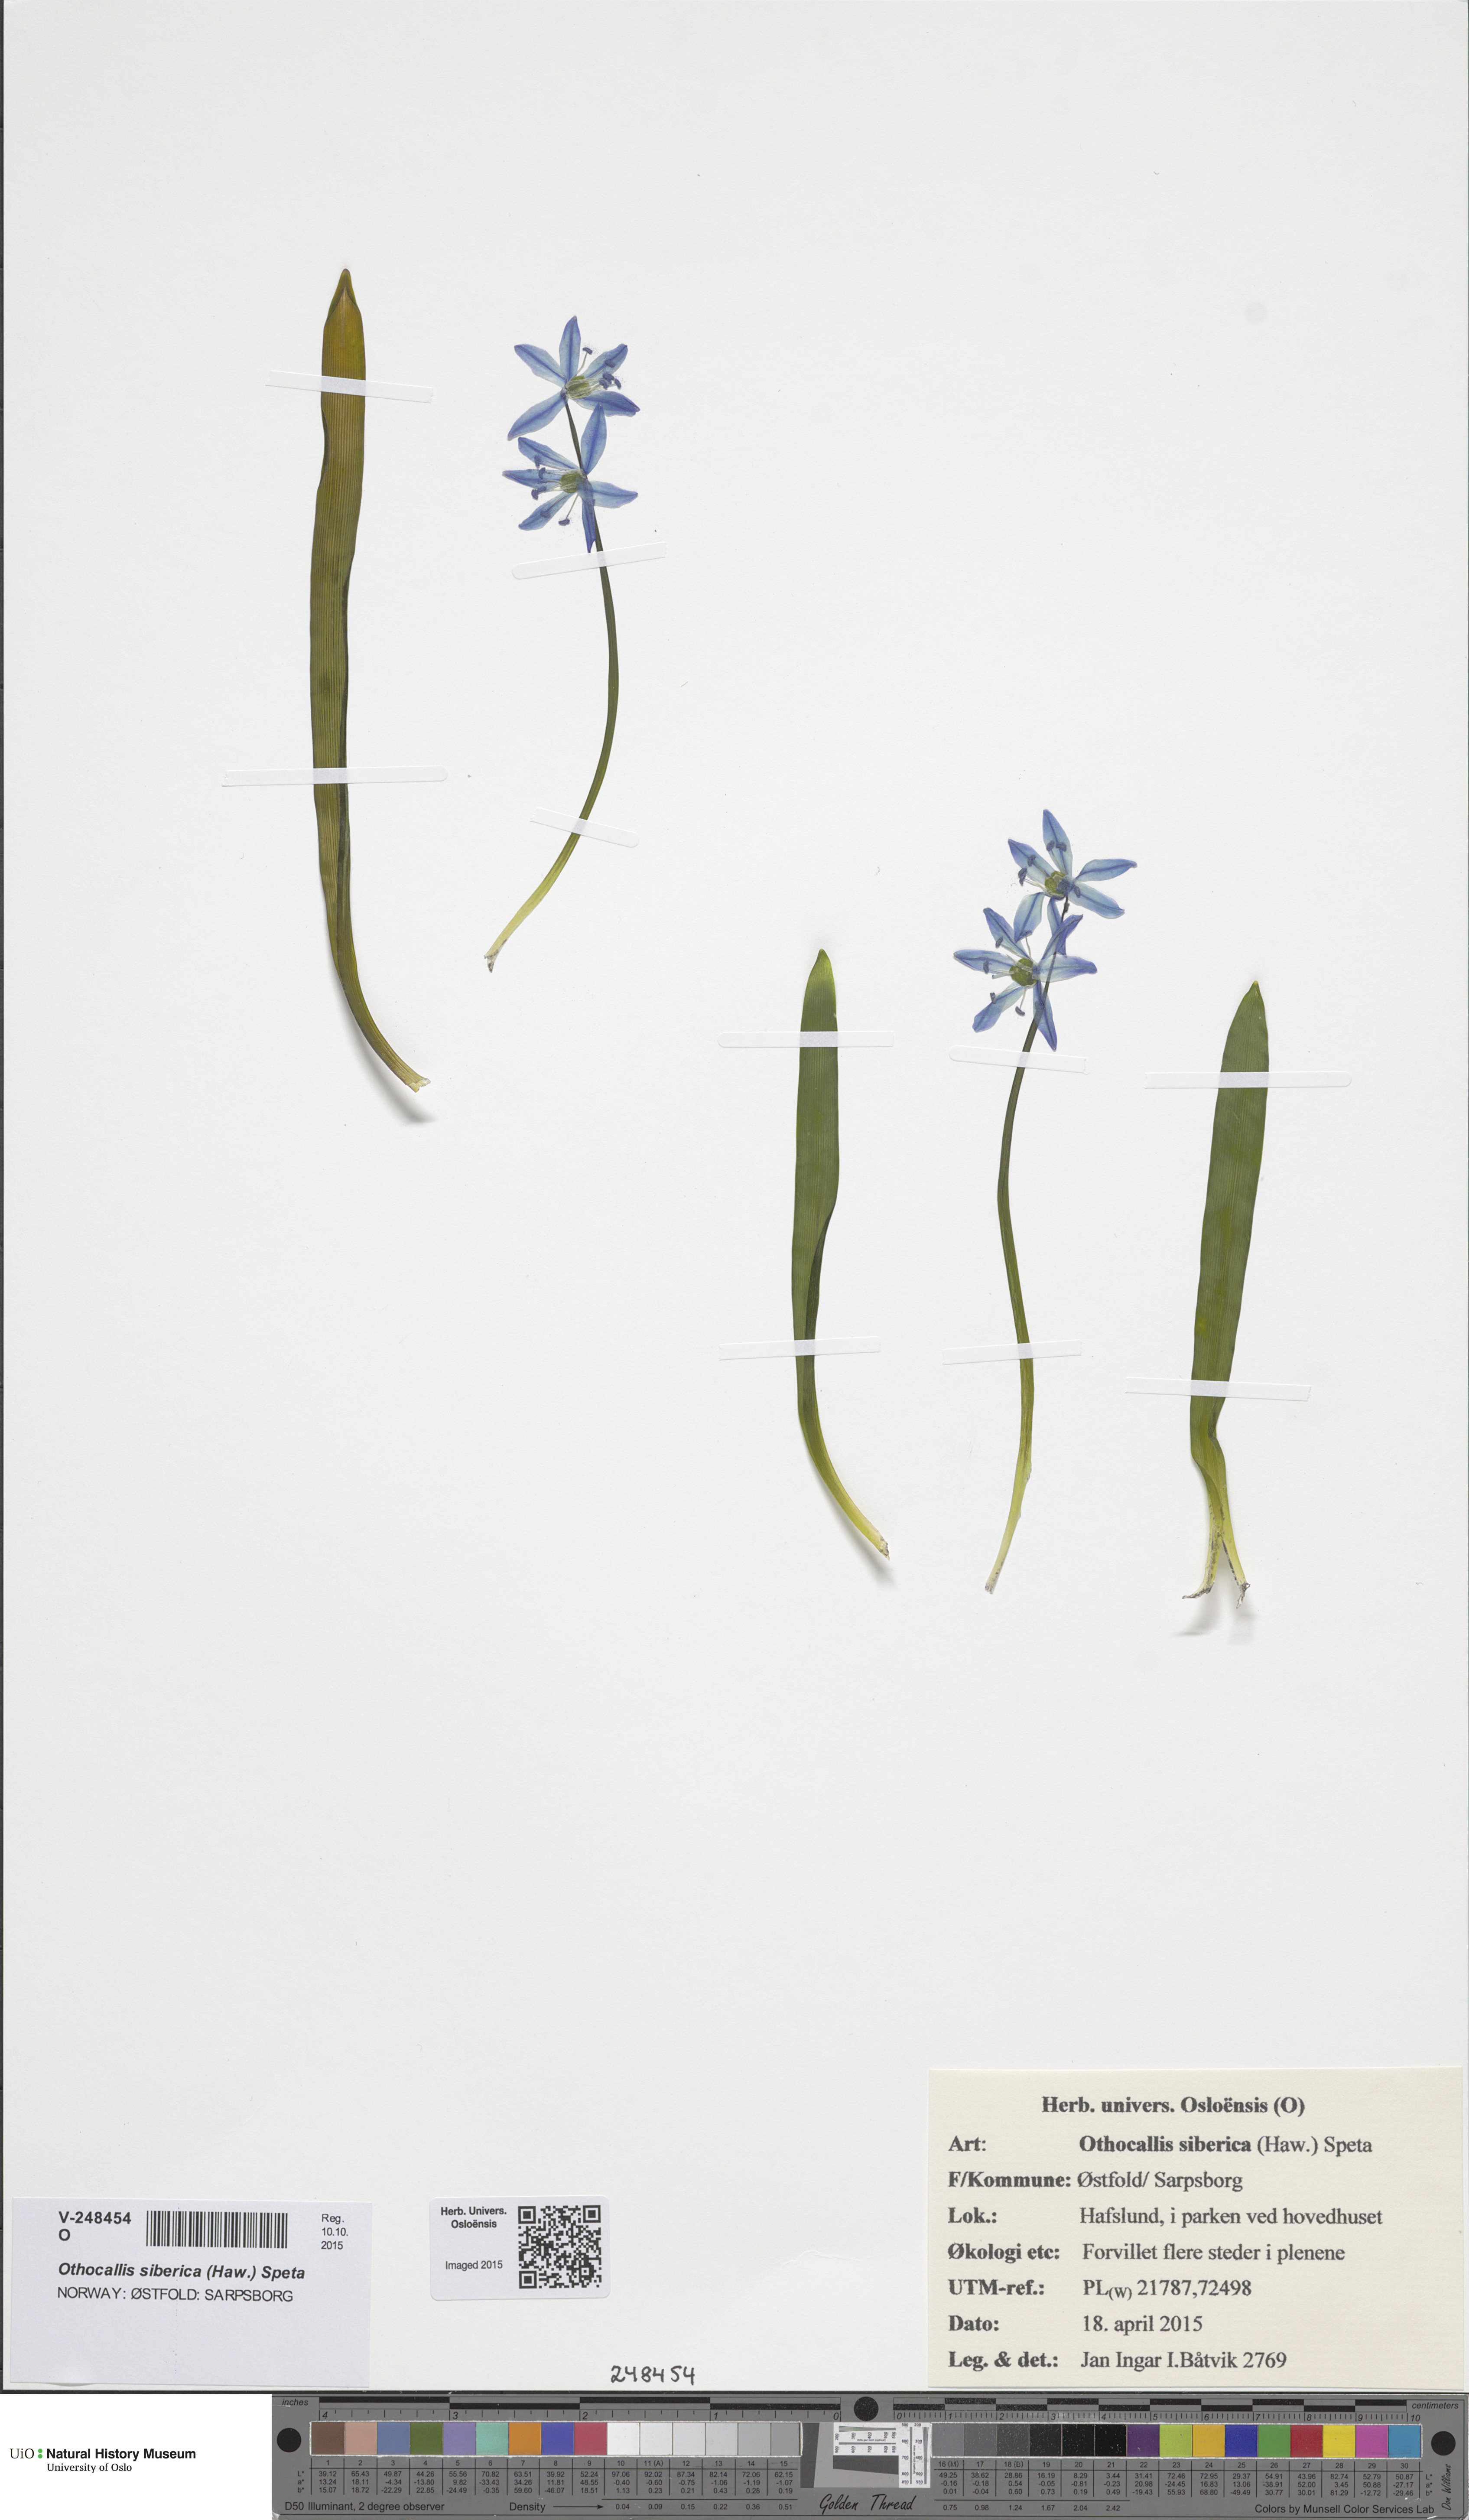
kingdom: Plantae
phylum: Tracheophyta
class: Liliopsida
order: Asparagales
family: Asparagaceae
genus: Scilla
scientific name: Scilla siberica
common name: Siberian squill
